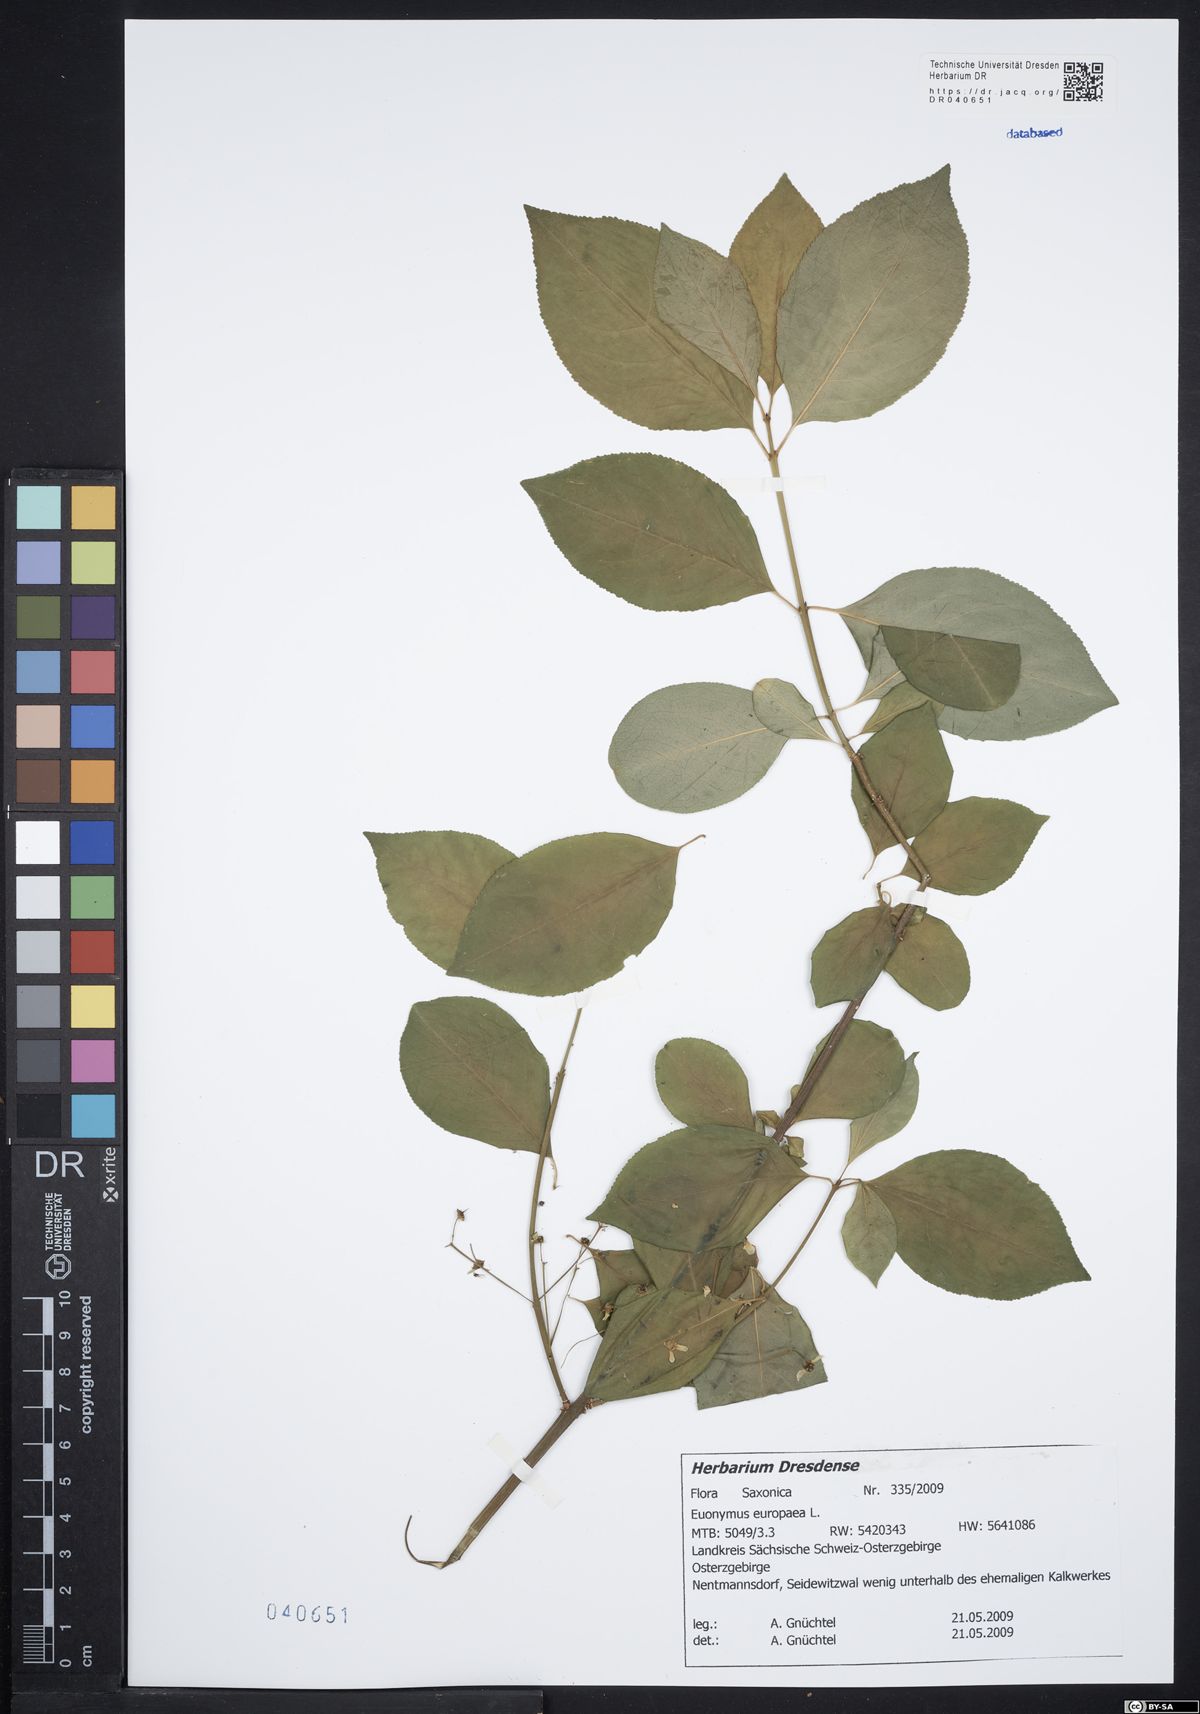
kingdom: Plantae
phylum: Tracheophyta
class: Magnoliopsida
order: Celastrales
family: Celastraceae
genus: Euonymus
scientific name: Euonymus europaeus
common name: Spindle
